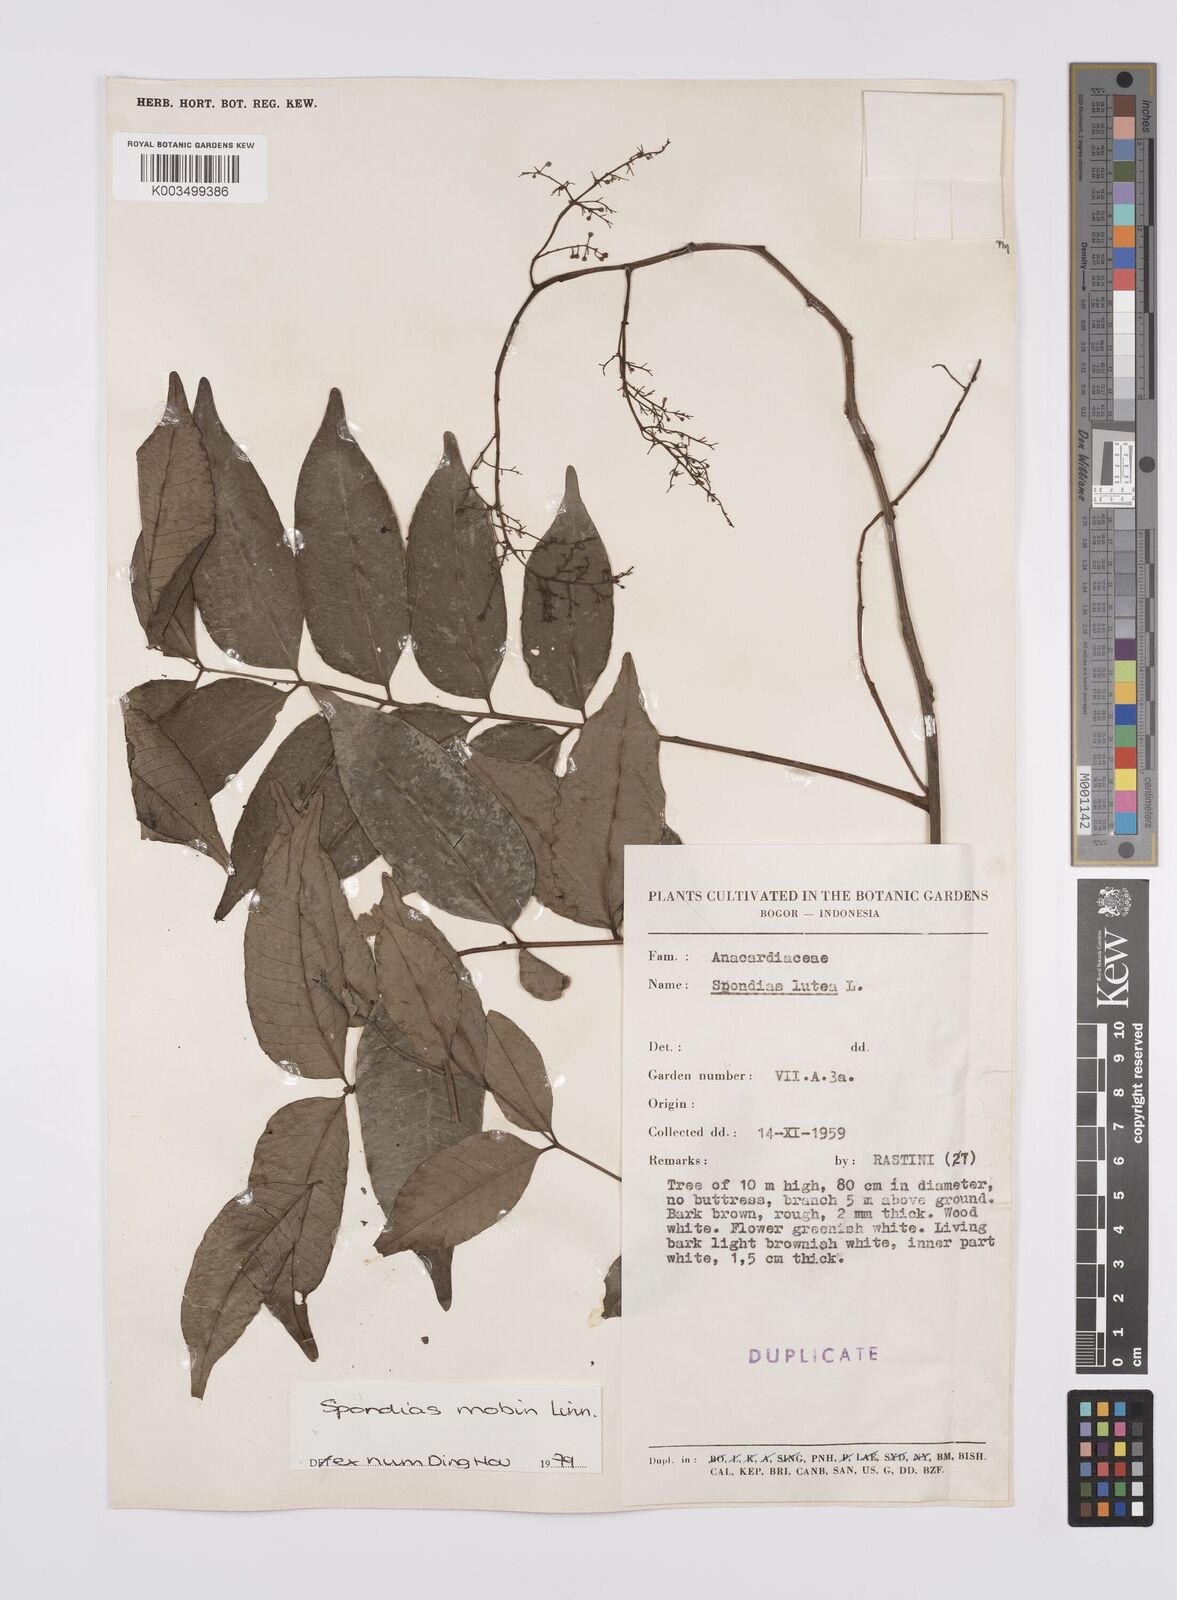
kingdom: Plantae
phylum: Tracheophyta
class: Magnoliopsida
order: Sapindales
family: Anacardiaceae
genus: Spondias
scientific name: Spondias mombin
